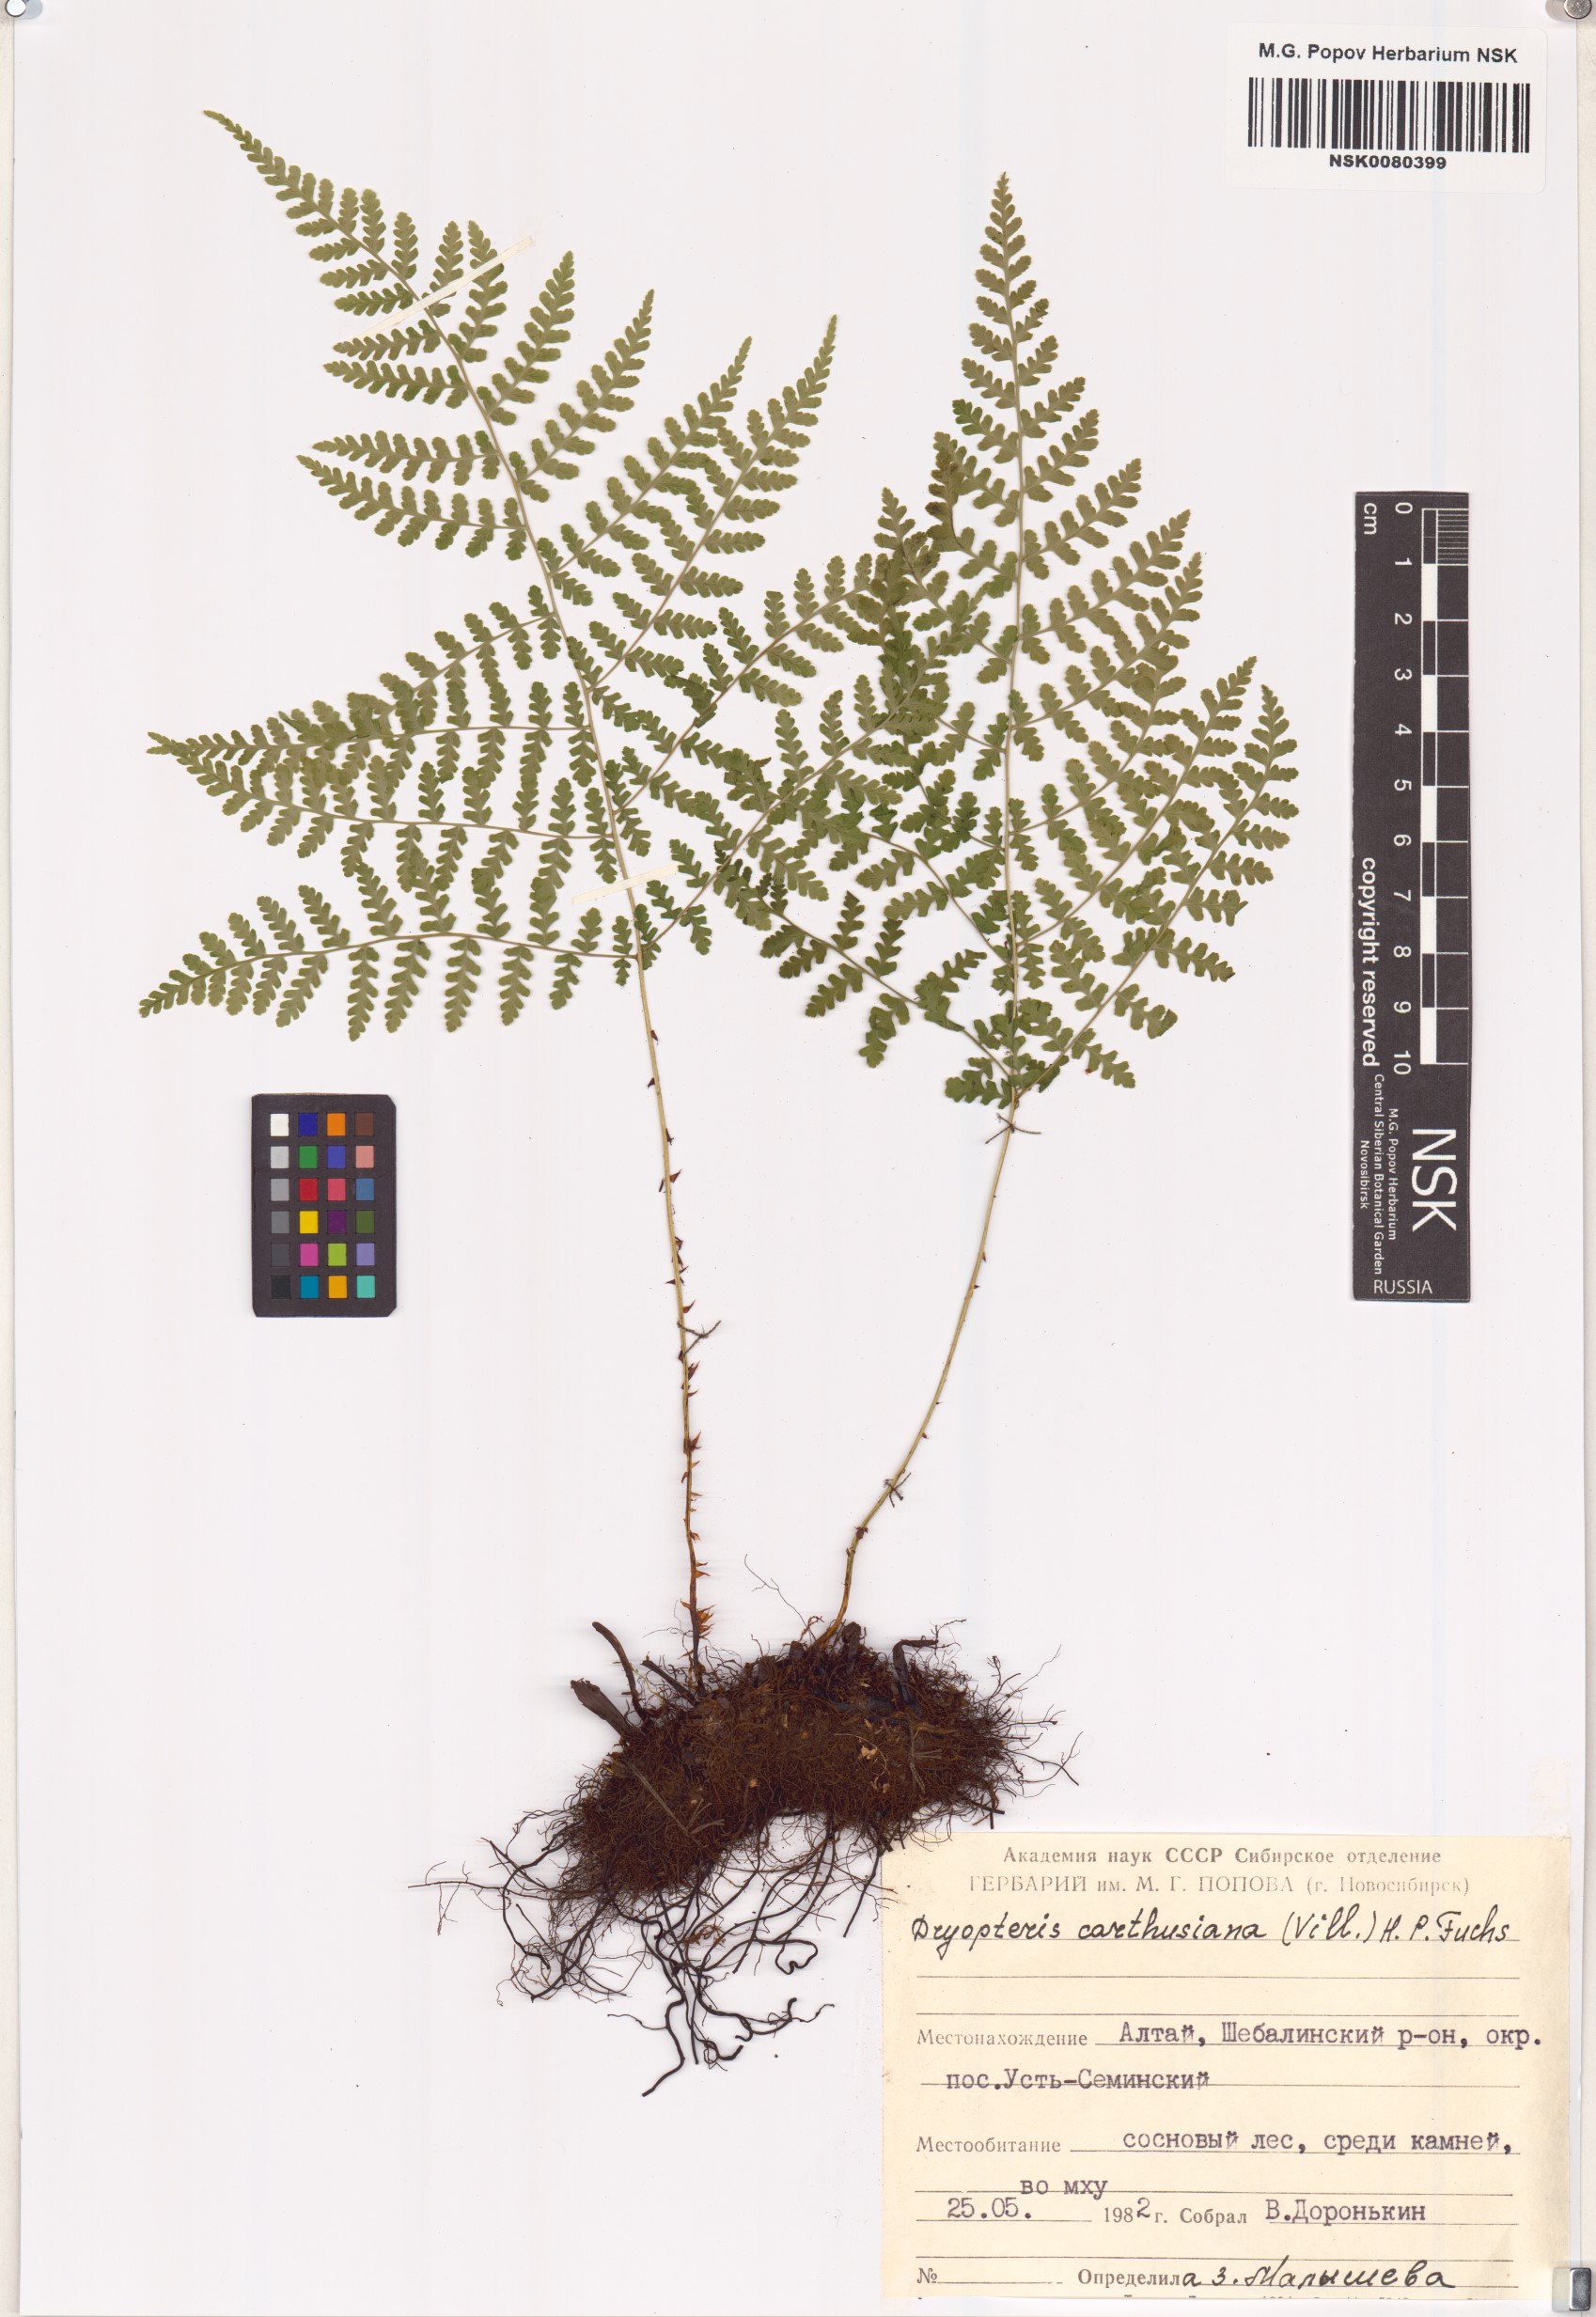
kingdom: Plantae
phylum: Tracheophyta
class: Polypodiopsida
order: Polypodiales
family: Dryopteridaceae
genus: Dryopteris
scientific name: Dryopteris carthusiana
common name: Narrow buckler-fern
